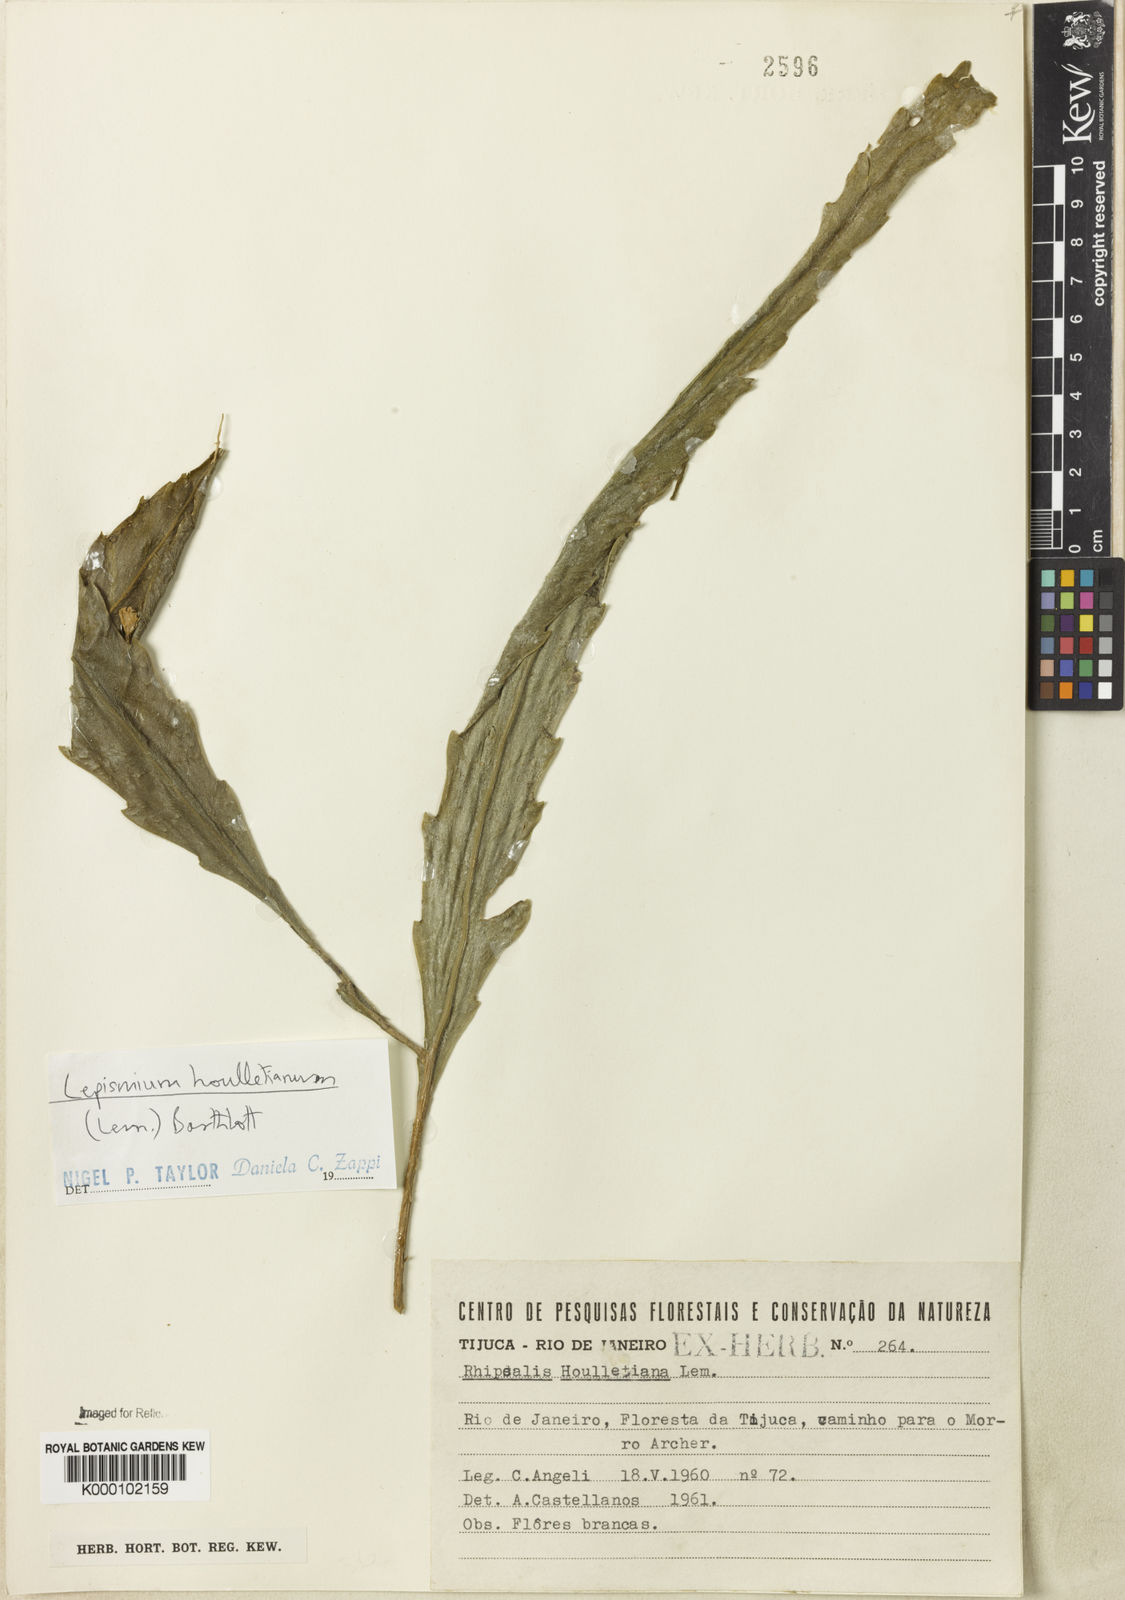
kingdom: Plantae
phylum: Tracheophyta
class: Magnoliopsida
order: Caryophyllales
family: Cactaceae
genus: Lepismium
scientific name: Lepismium houlletianum
